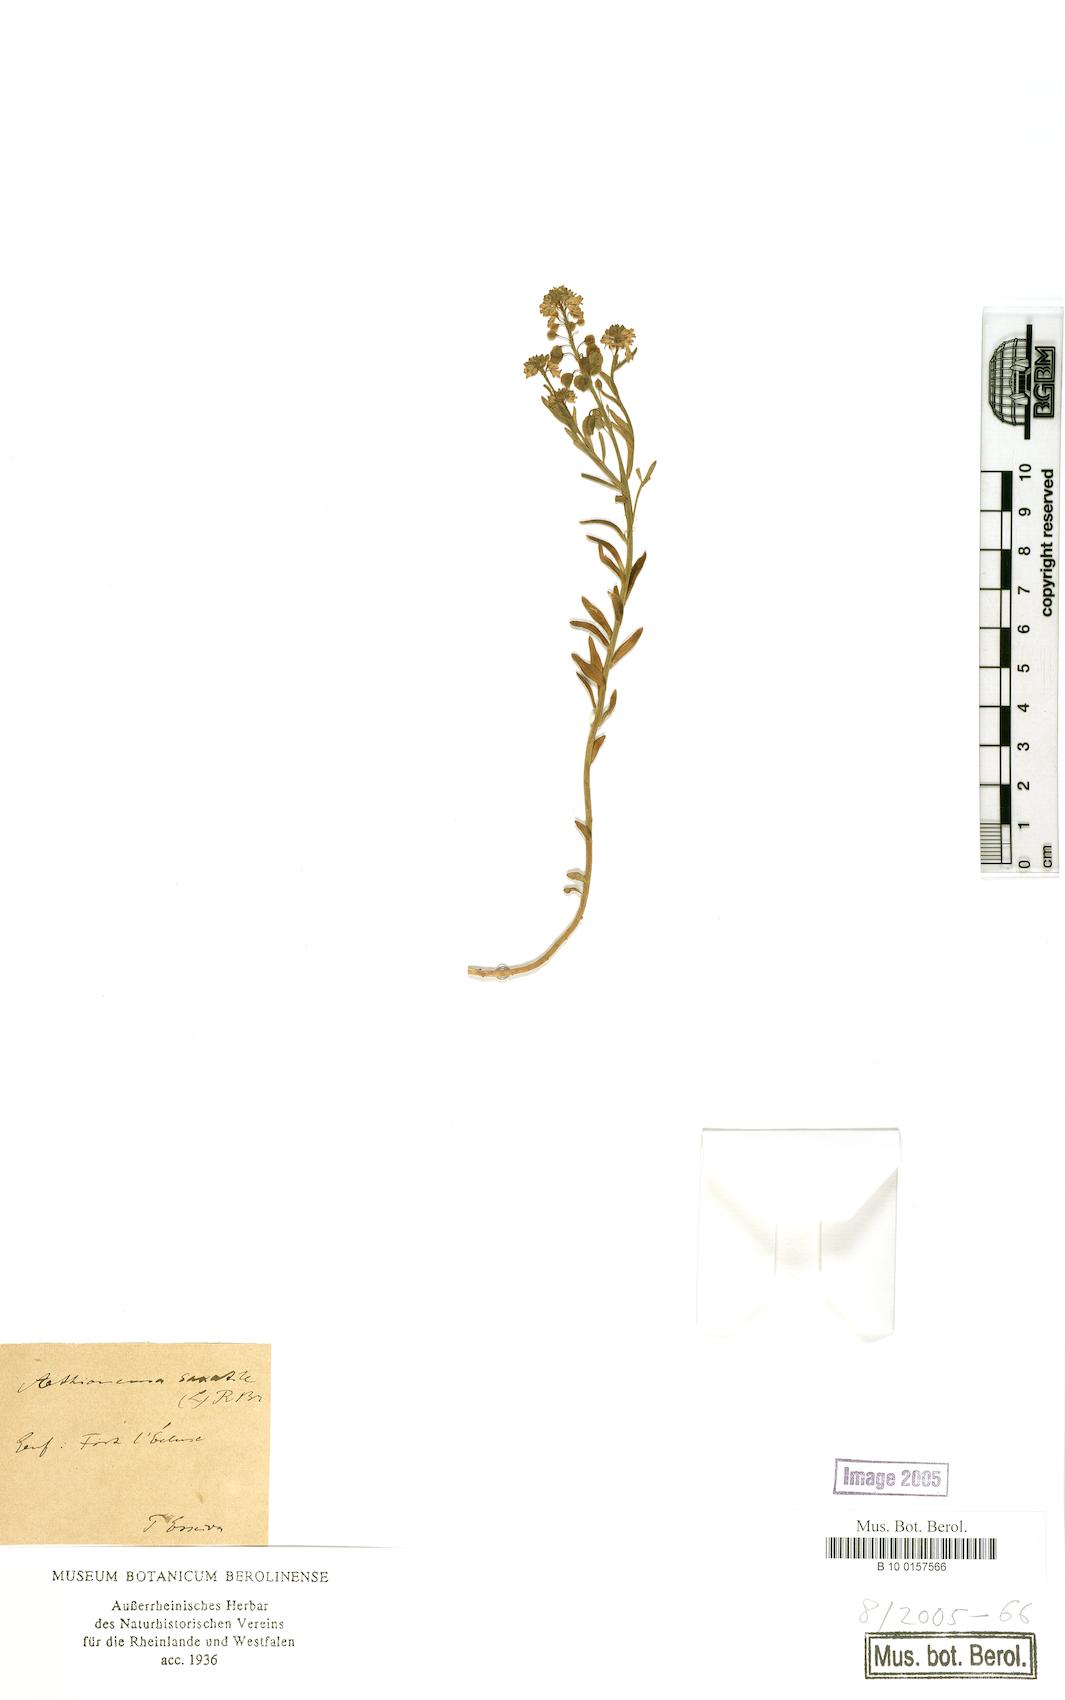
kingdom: Plantae
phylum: Tracheophyta
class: Magnoliopsida
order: Brassicales
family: Brassicaceae
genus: Aethionema
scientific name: Aethionema saxatile
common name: Burnt candytuft
